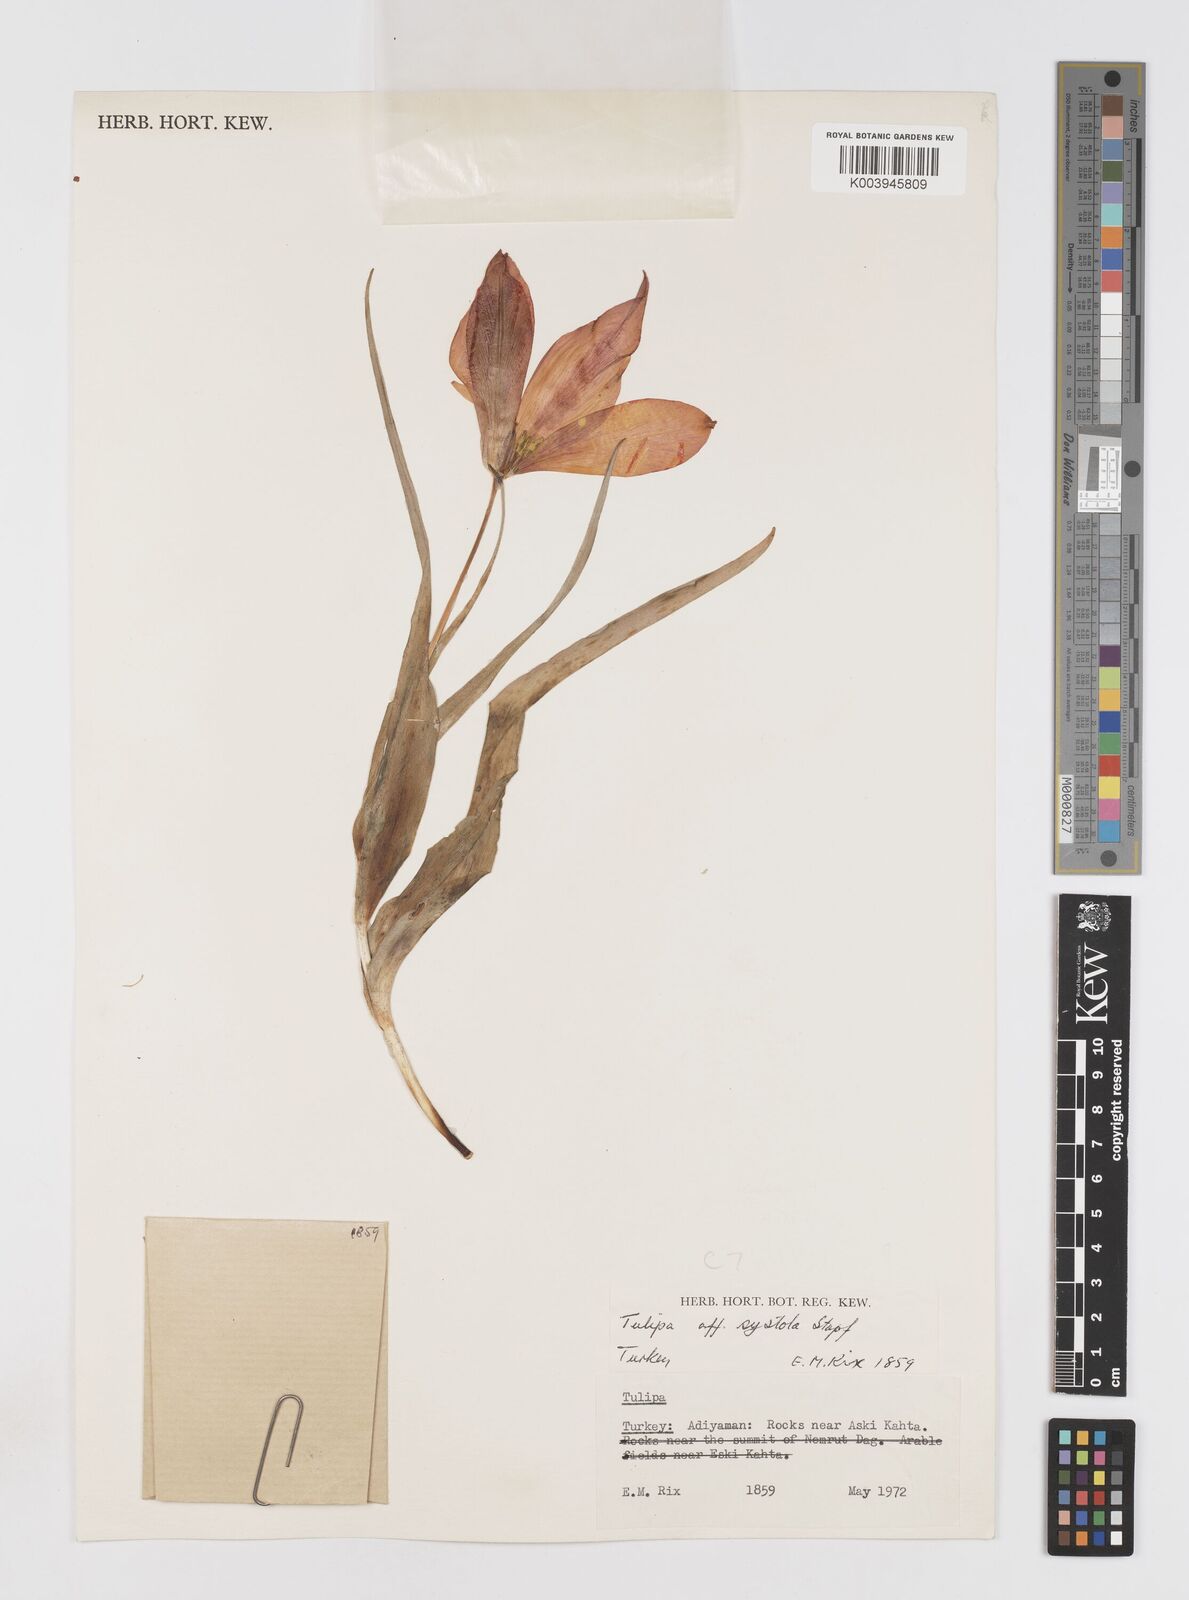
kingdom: Plantae
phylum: Tracheophyta
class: Liliopsida
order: Liliales
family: Liliaceae
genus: Tulipa
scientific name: Tulipa aleppensis
